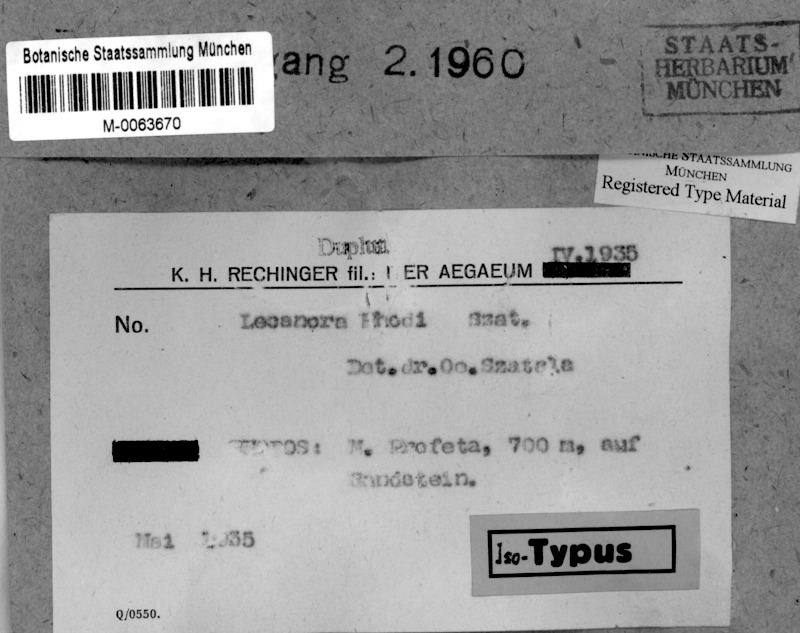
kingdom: Fungi
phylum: Ascomycota
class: Lecanoromycetes
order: Lecanorales
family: Lecanoraceae
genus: Lecanora
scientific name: Lecanora
